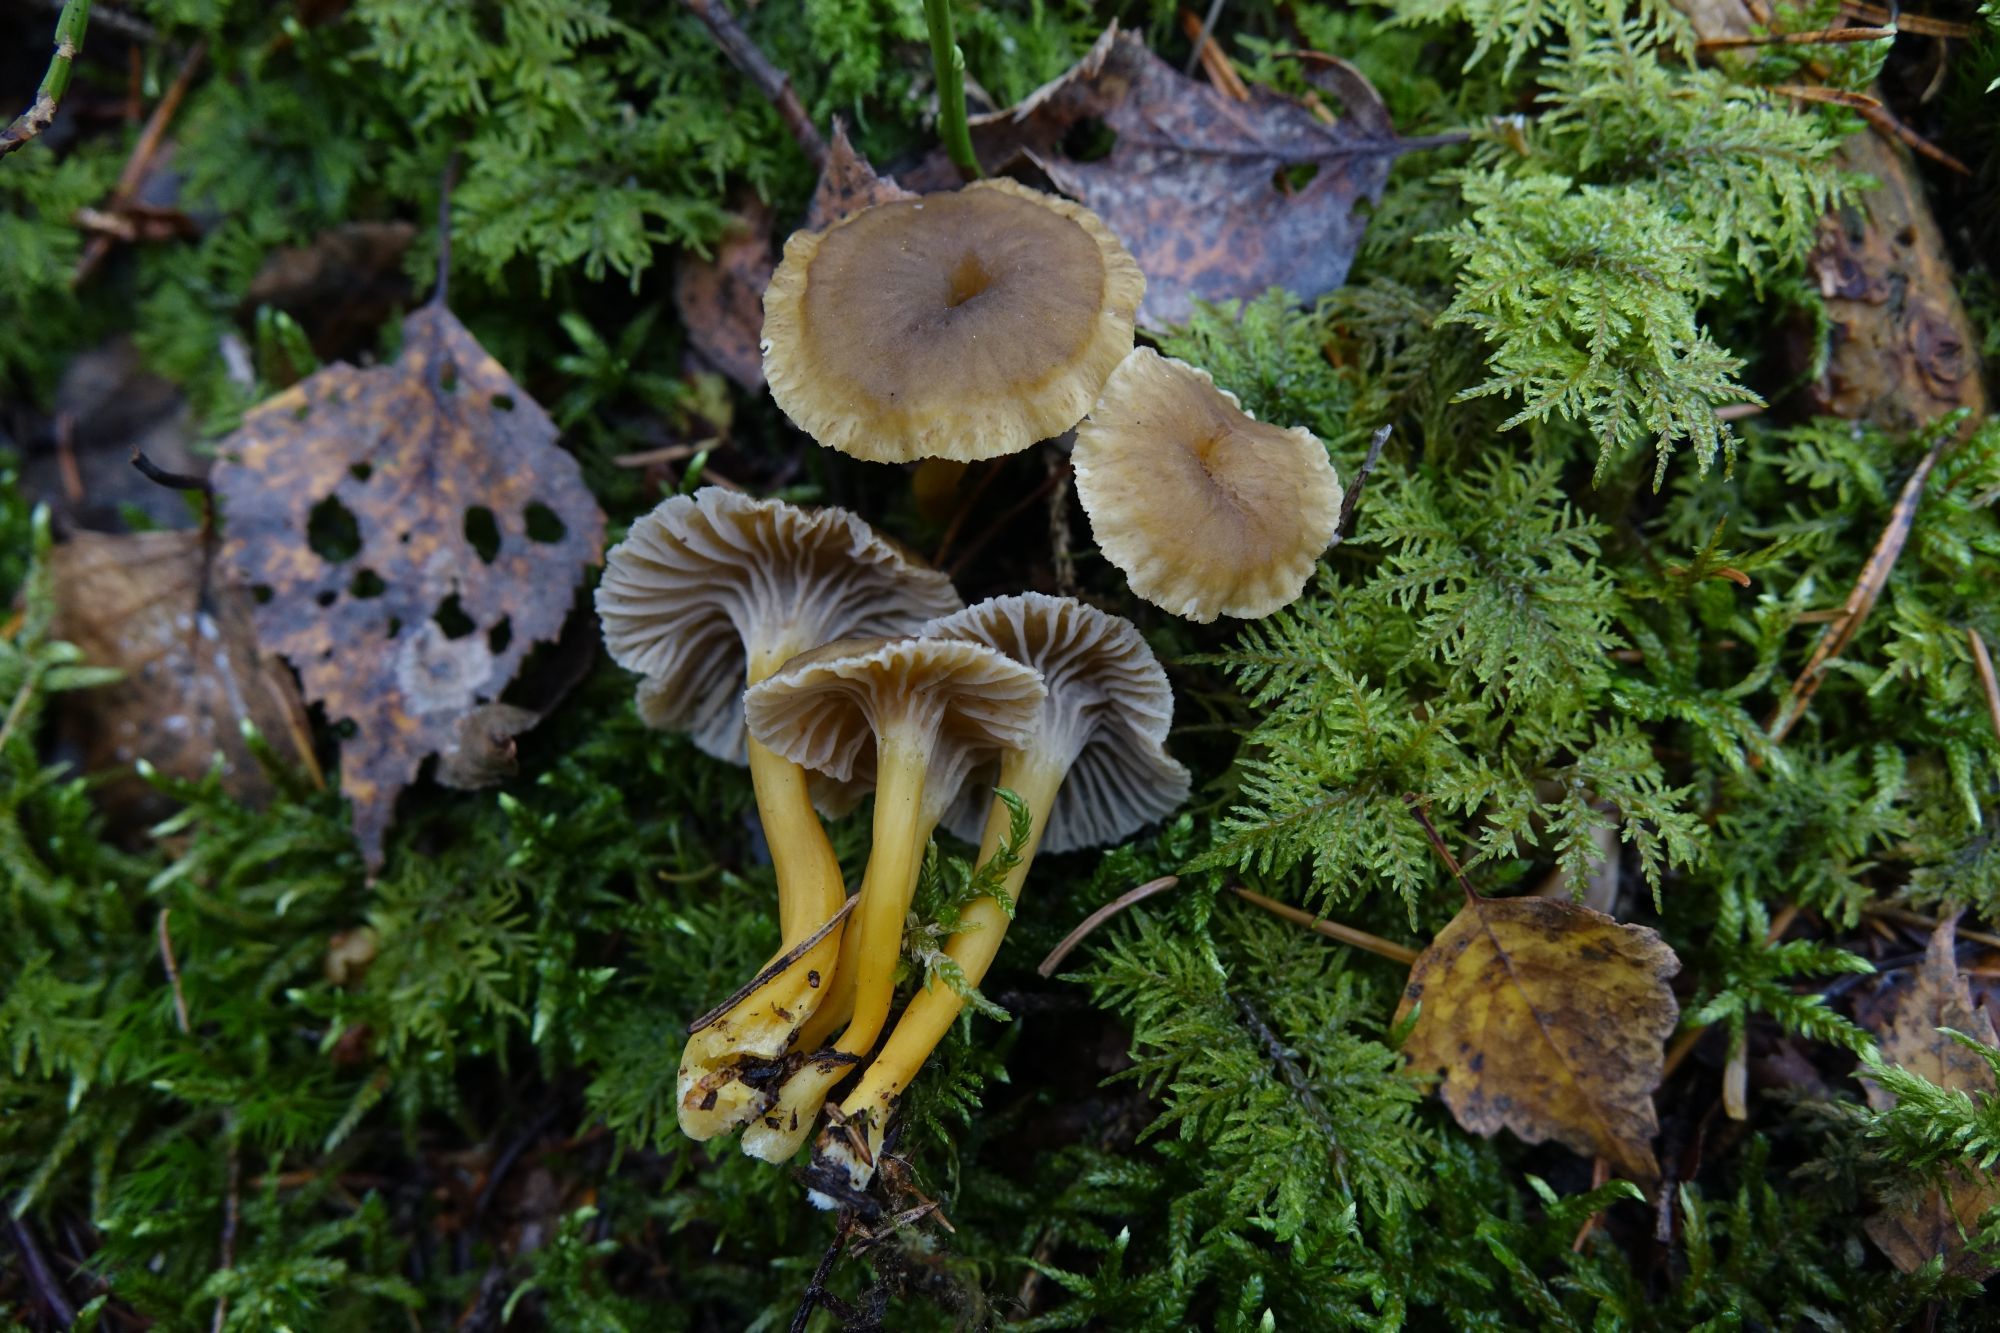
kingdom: Fungi
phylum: Basidiomycota
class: Agaricomycetes
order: Cantharellales
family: Hydnaceae
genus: Craterellus
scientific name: Craterellus tubaeformis
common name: Yellowfoot
